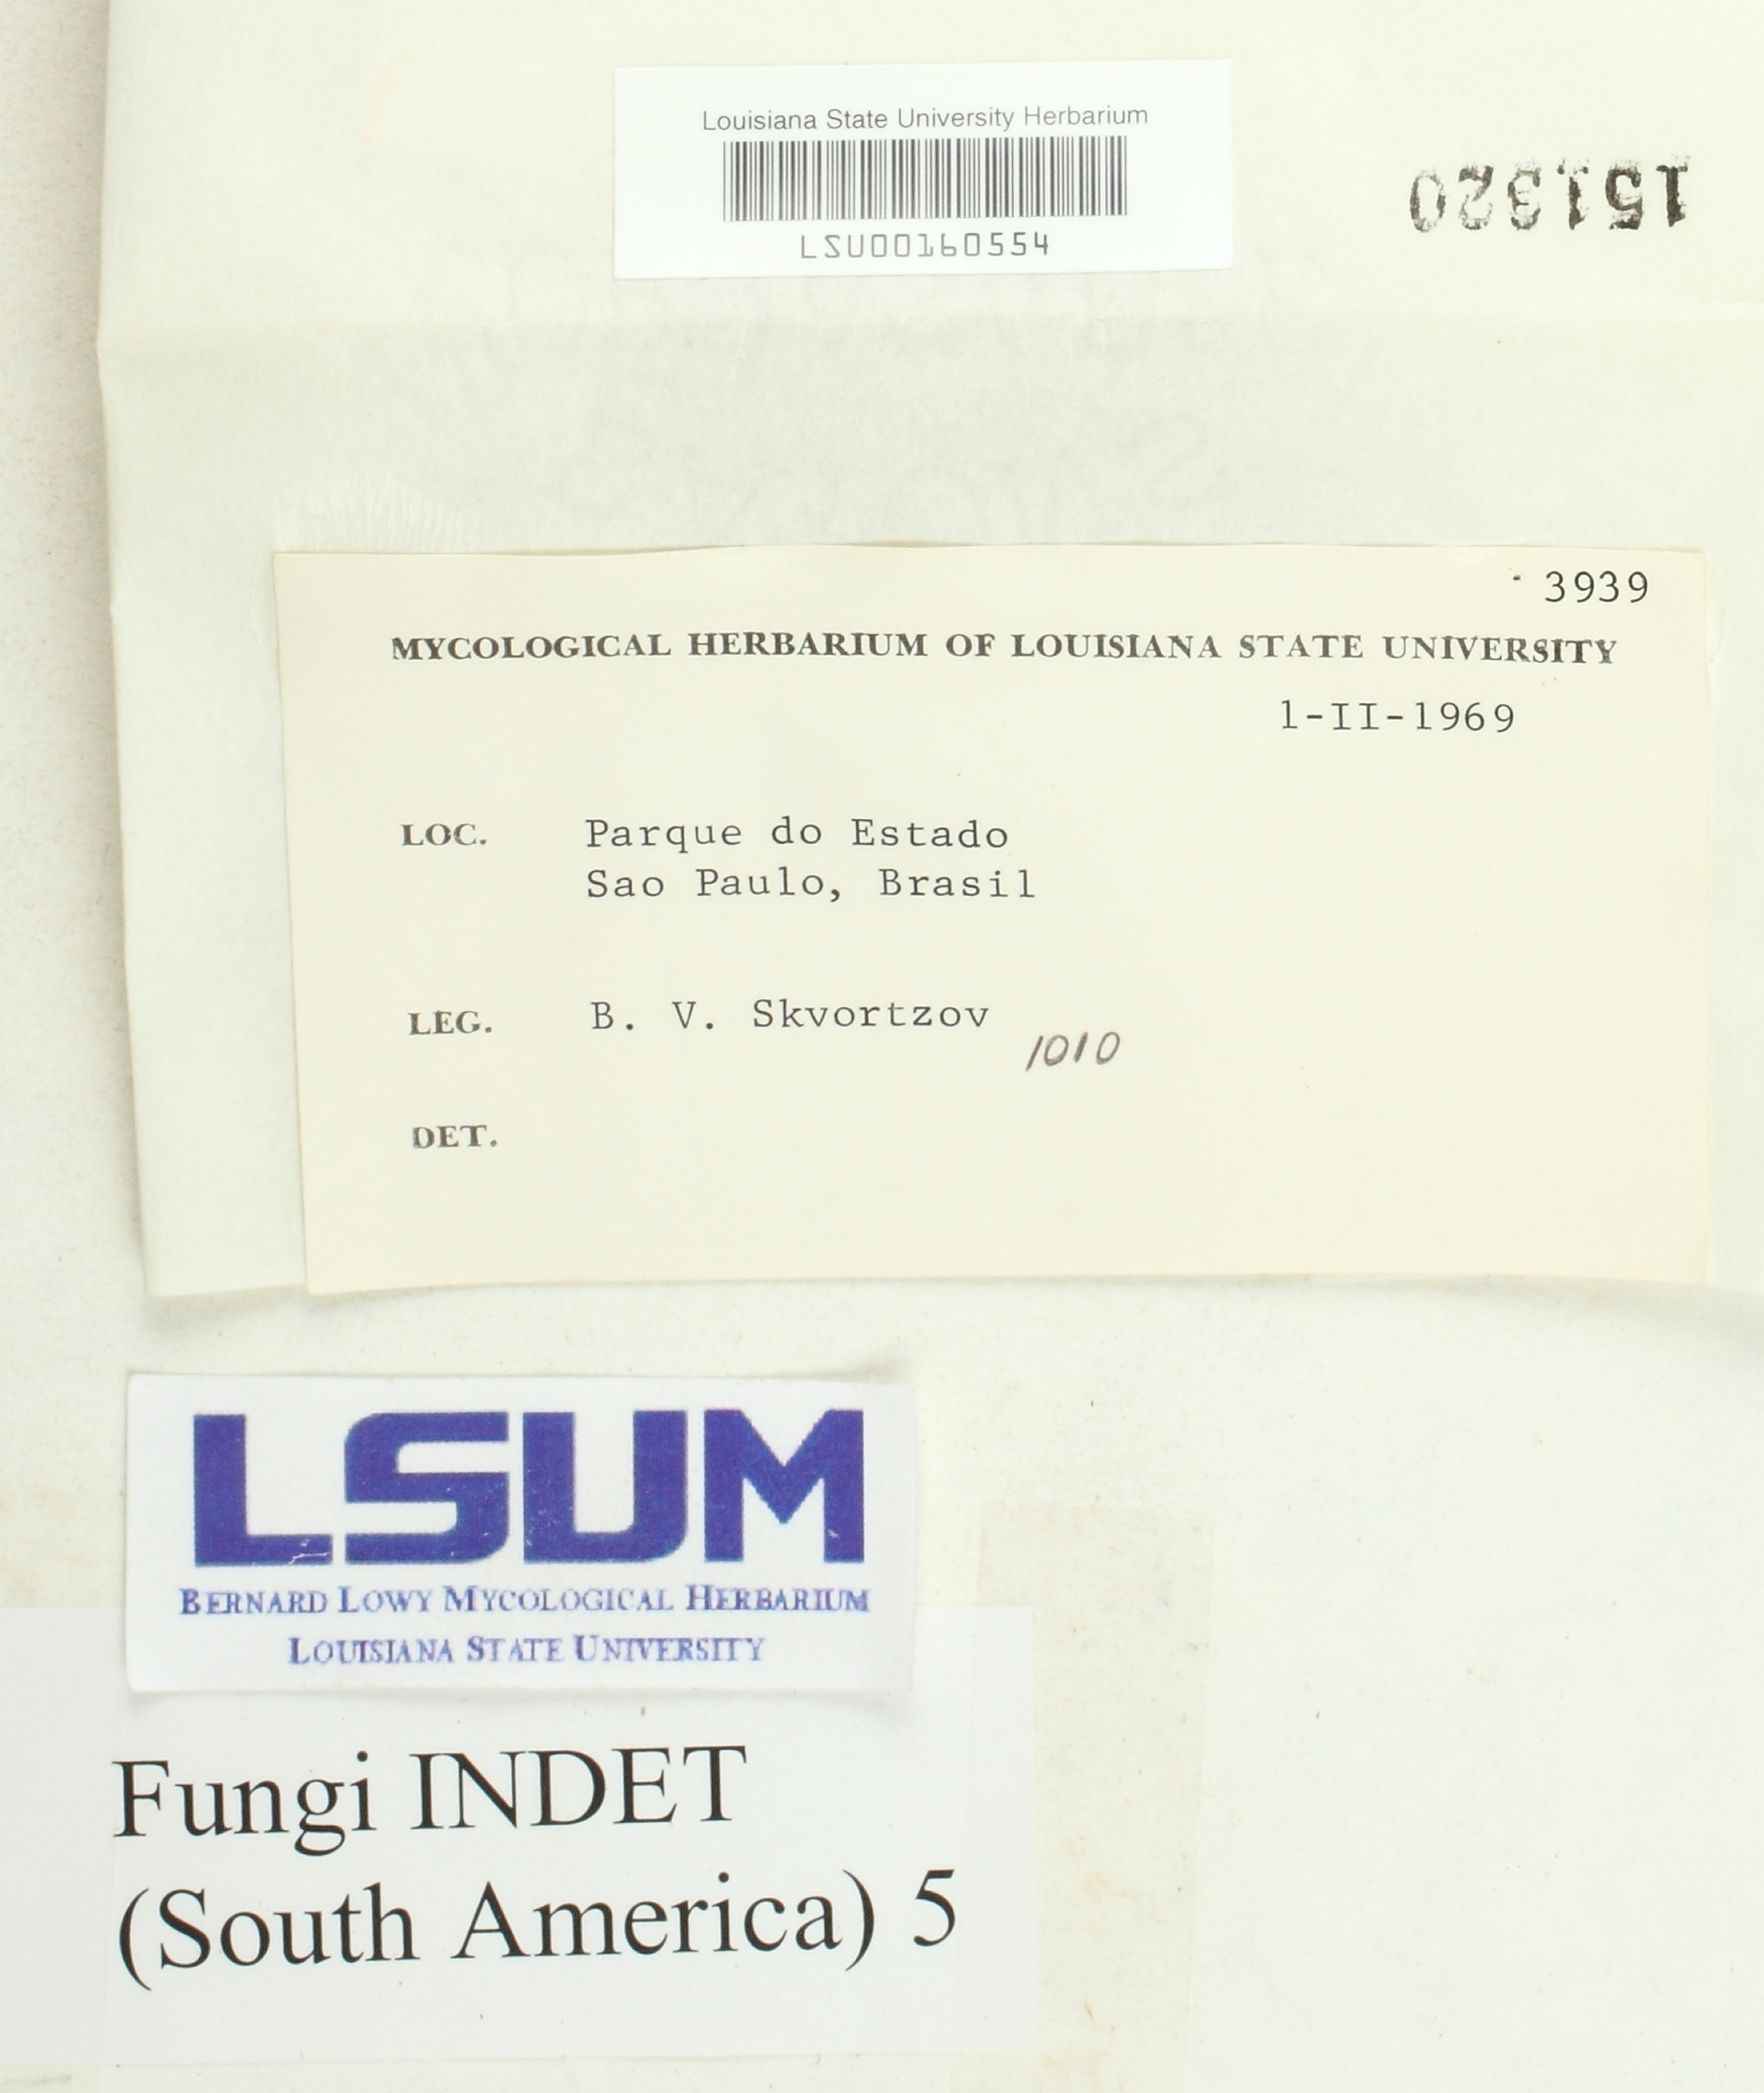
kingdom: Fungi
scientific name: Fungi
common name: Fungi
